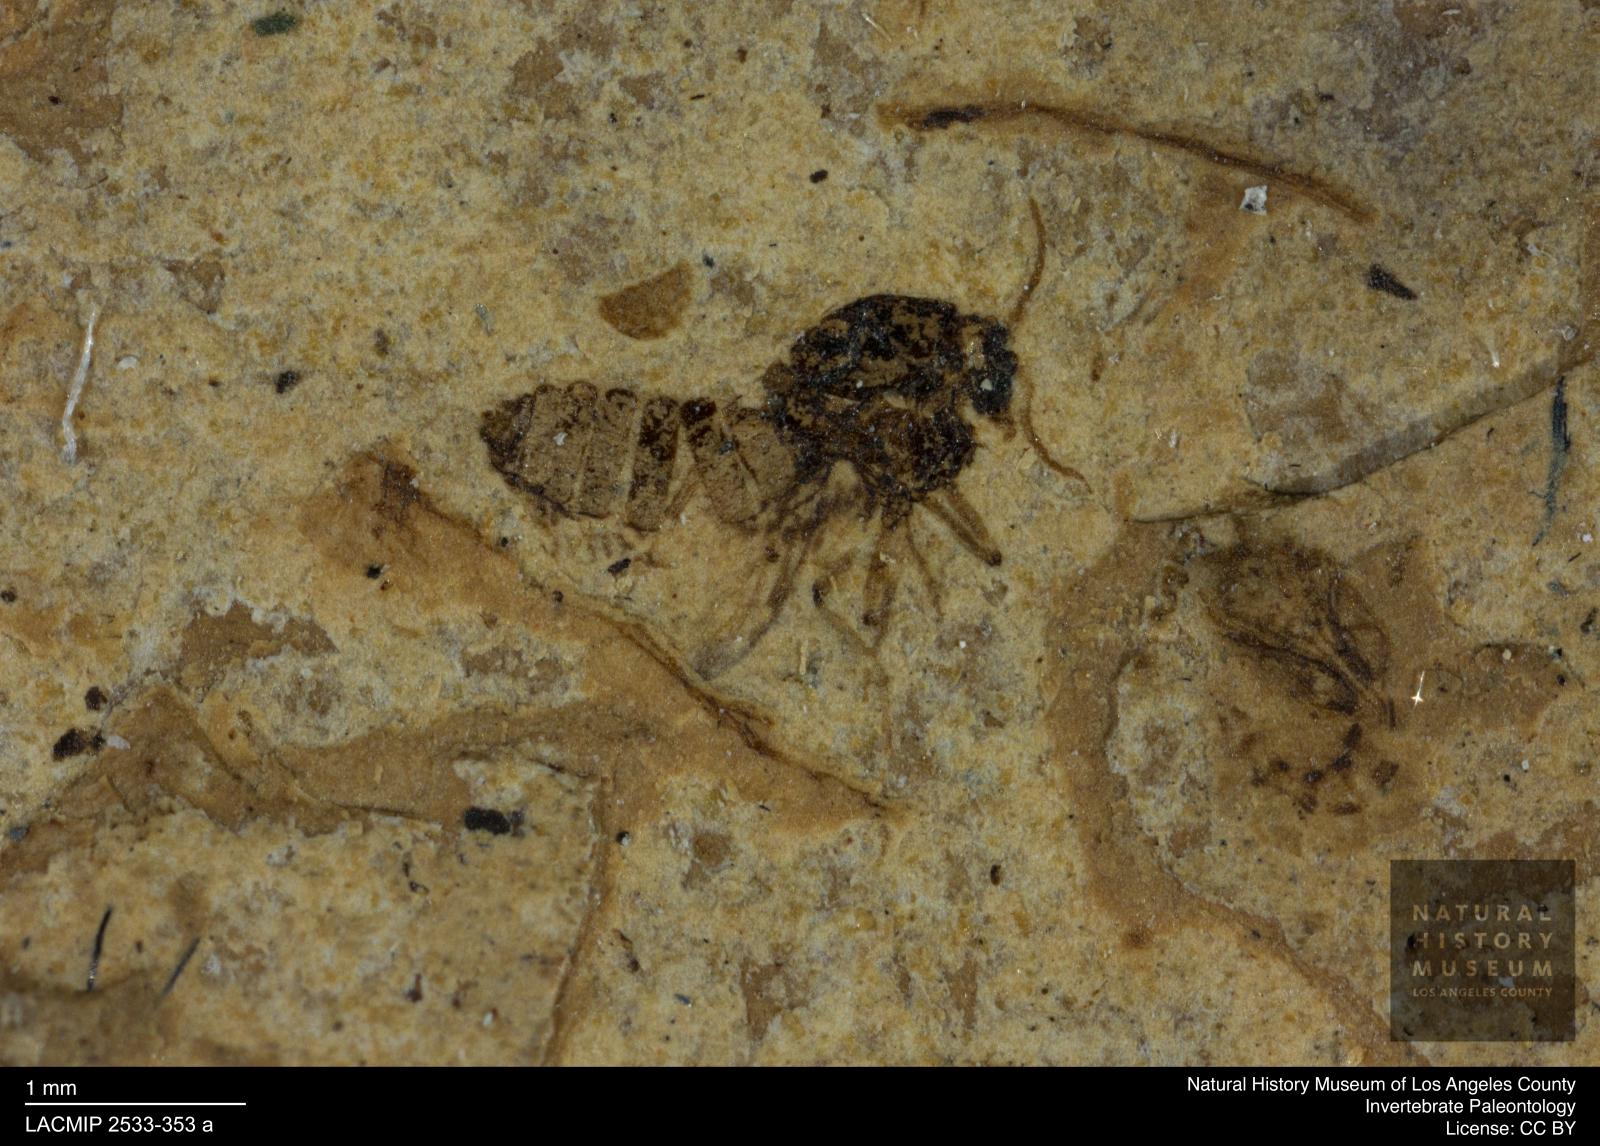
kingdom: Animalia
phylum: Arthropoda
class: Insecta
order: Diptera
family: Ceratopogonidae
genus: Culicoides
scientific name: Culicoides bicolor
